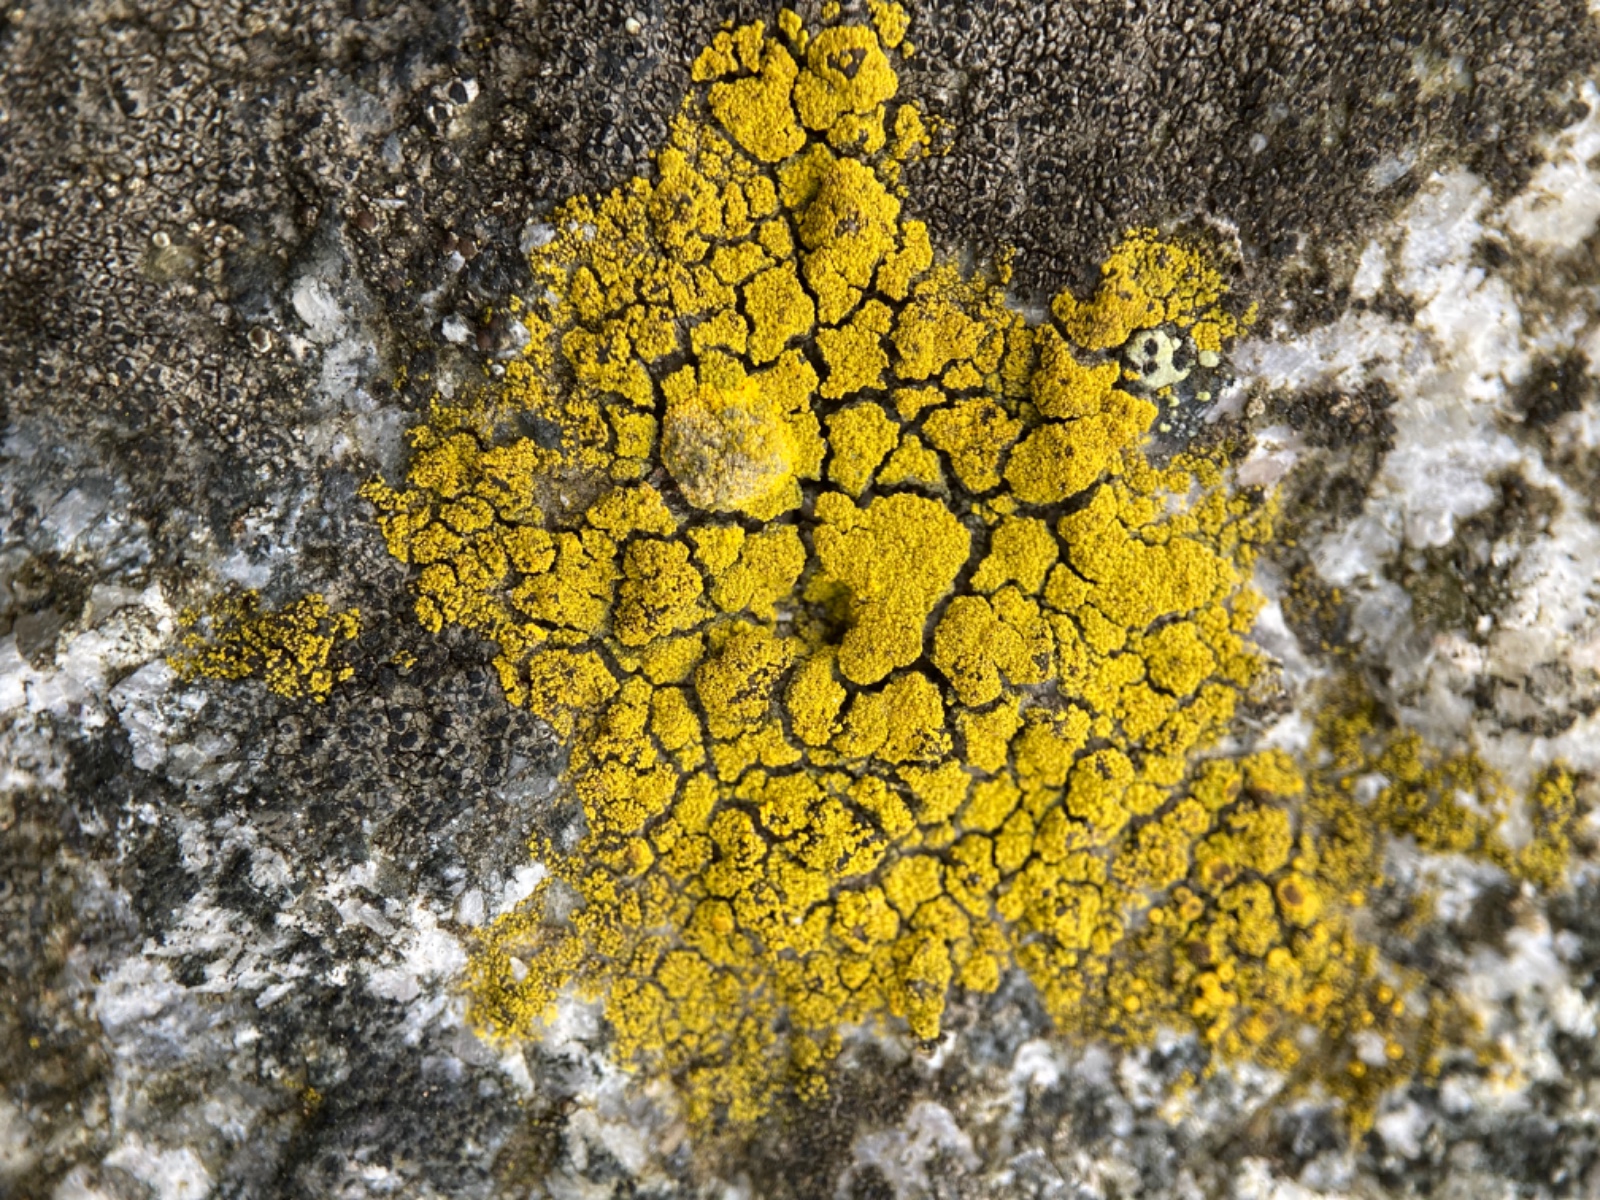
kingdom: Fungi
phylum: Ascomycota
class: Candelariomycetes
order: Candelariales
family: Candelariaceae
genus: Candelariella
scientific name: Candelariella vitellina
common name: almindelig æggeblommelav
